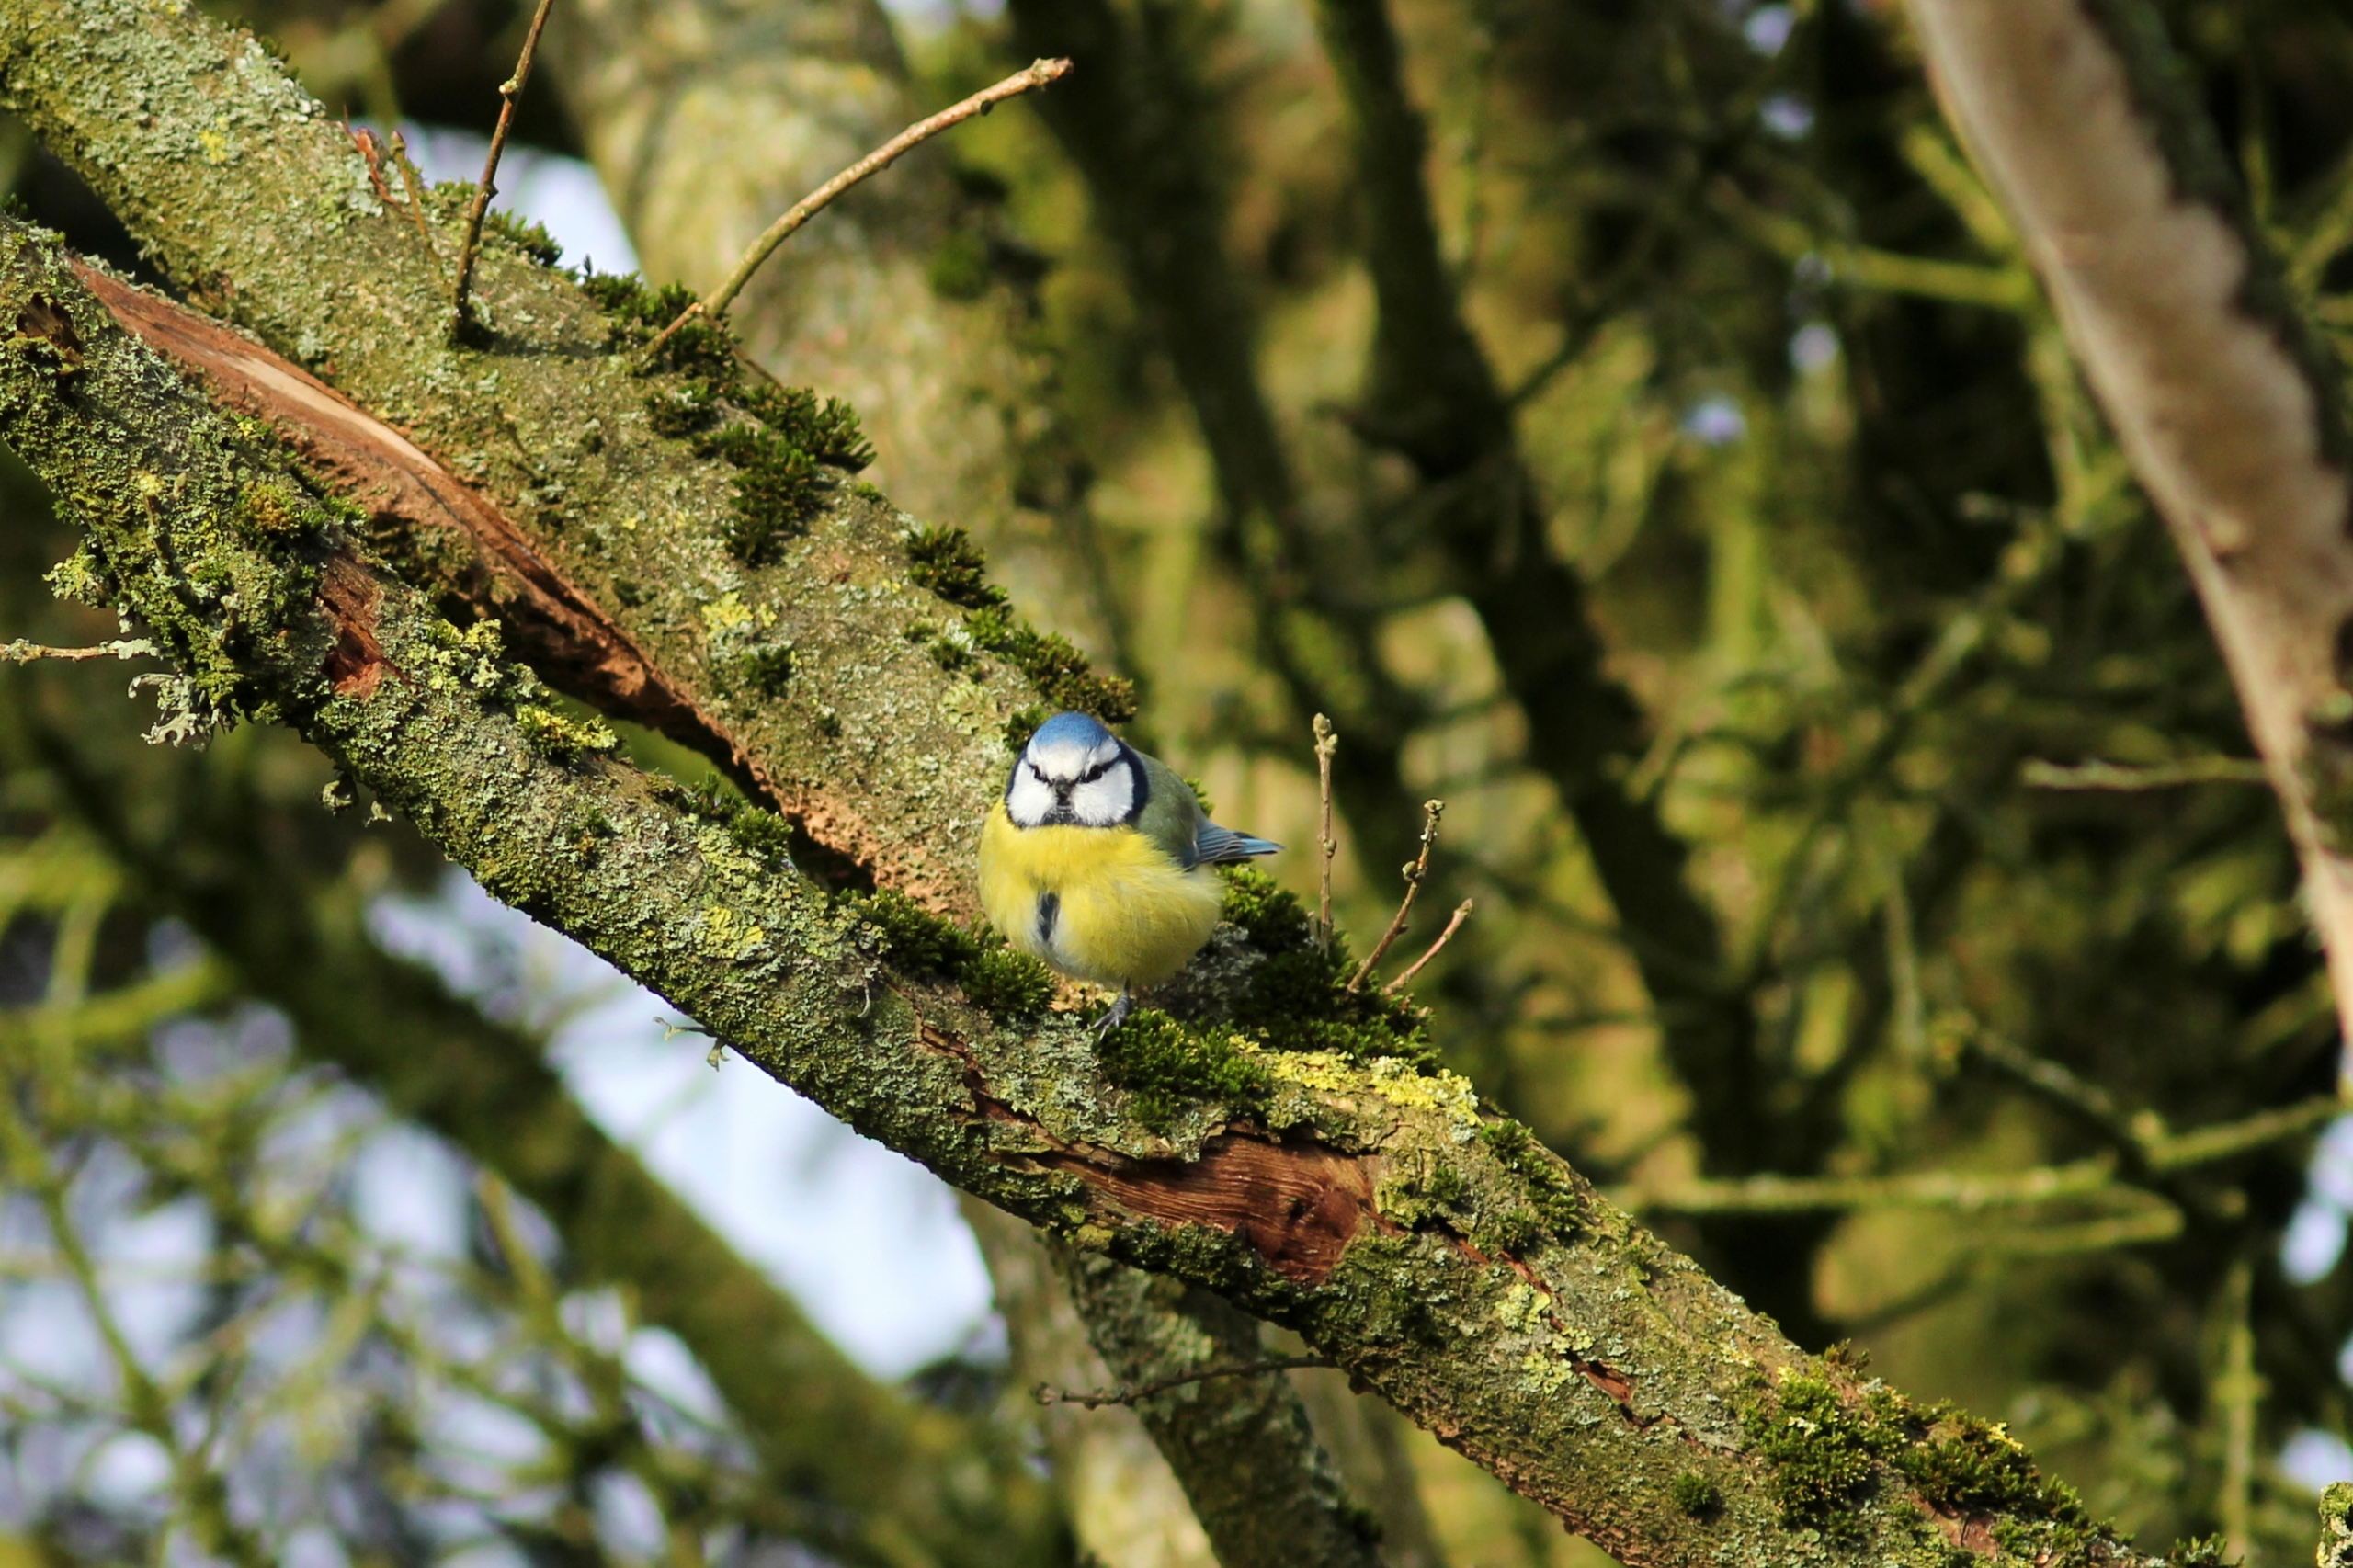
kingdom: Animalia
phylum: Chordata
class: Aves
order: Passeriformes
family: Paridae
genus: Cyanistes
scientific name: Cyanistes caeruleus
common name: Blåmejse
